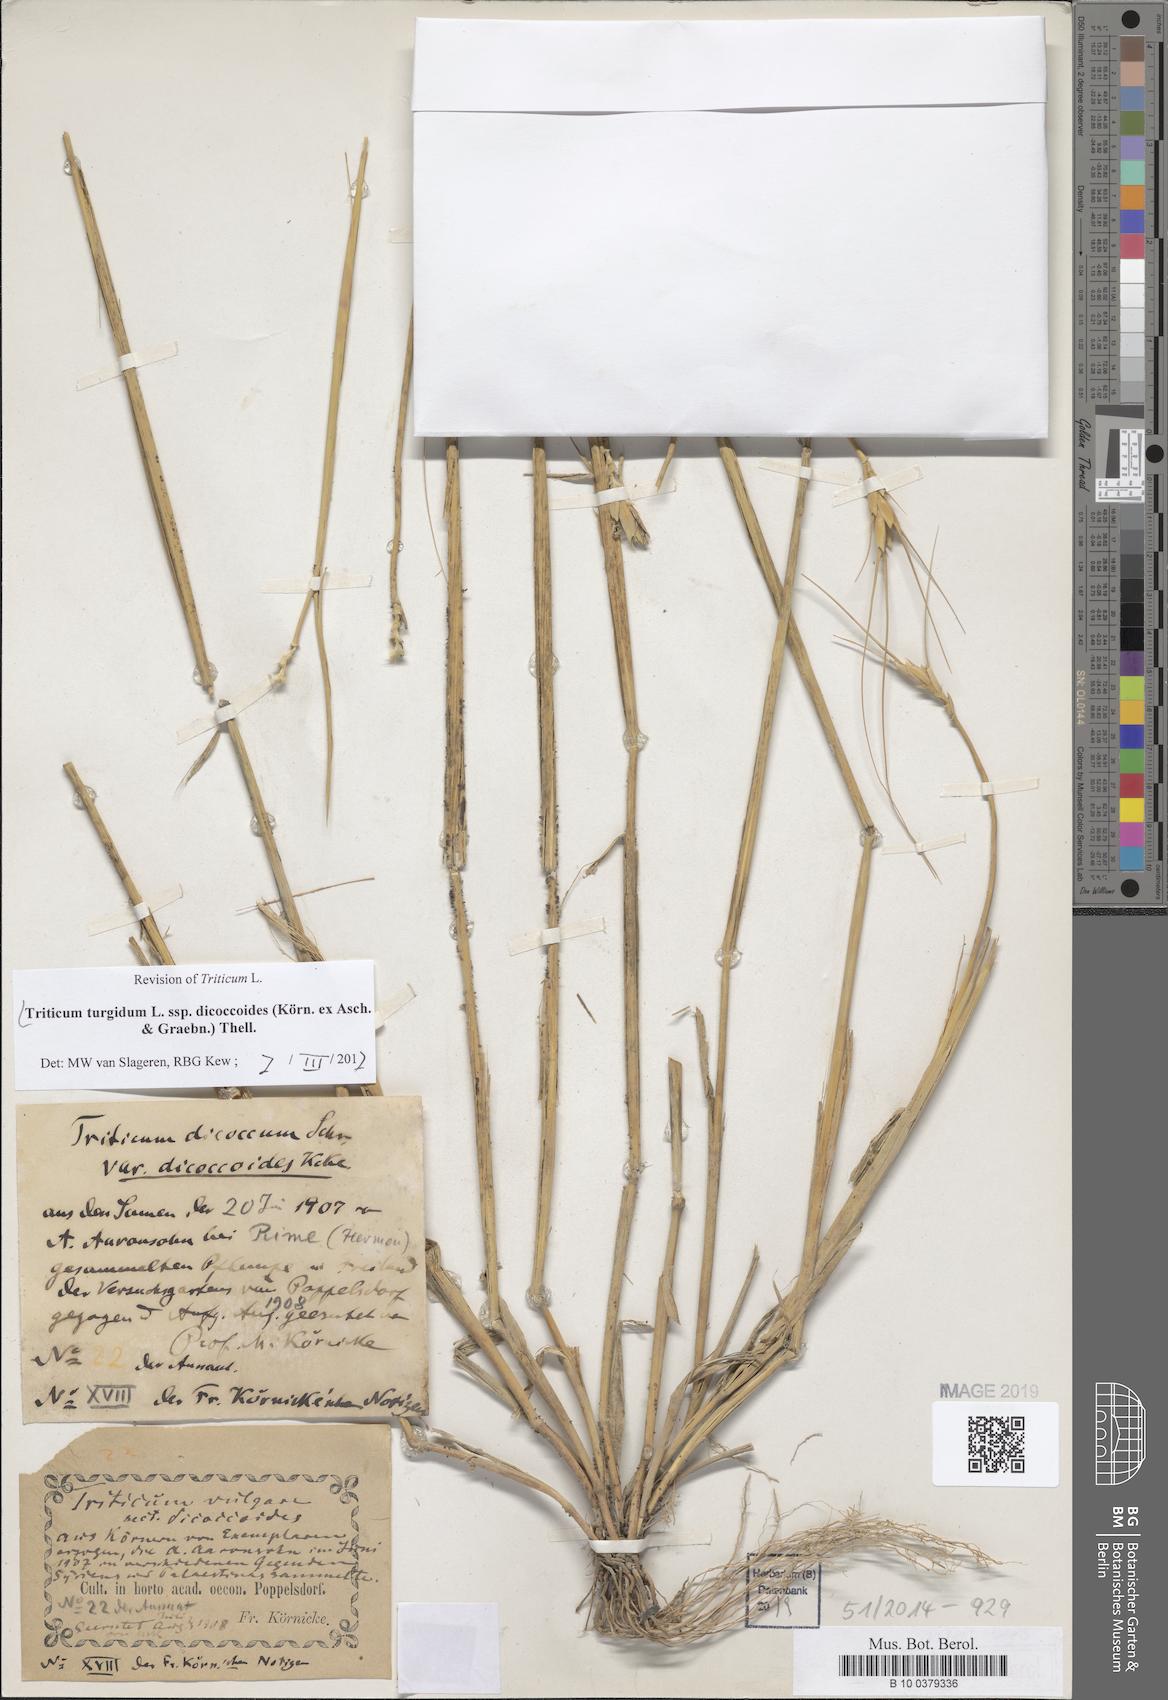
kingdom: Plantae
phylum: Tracheophyta
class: Liliopsida
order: Poales
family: Poaceae
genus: Triticum
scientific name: Triticum turgidum
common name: Rivet wheat
